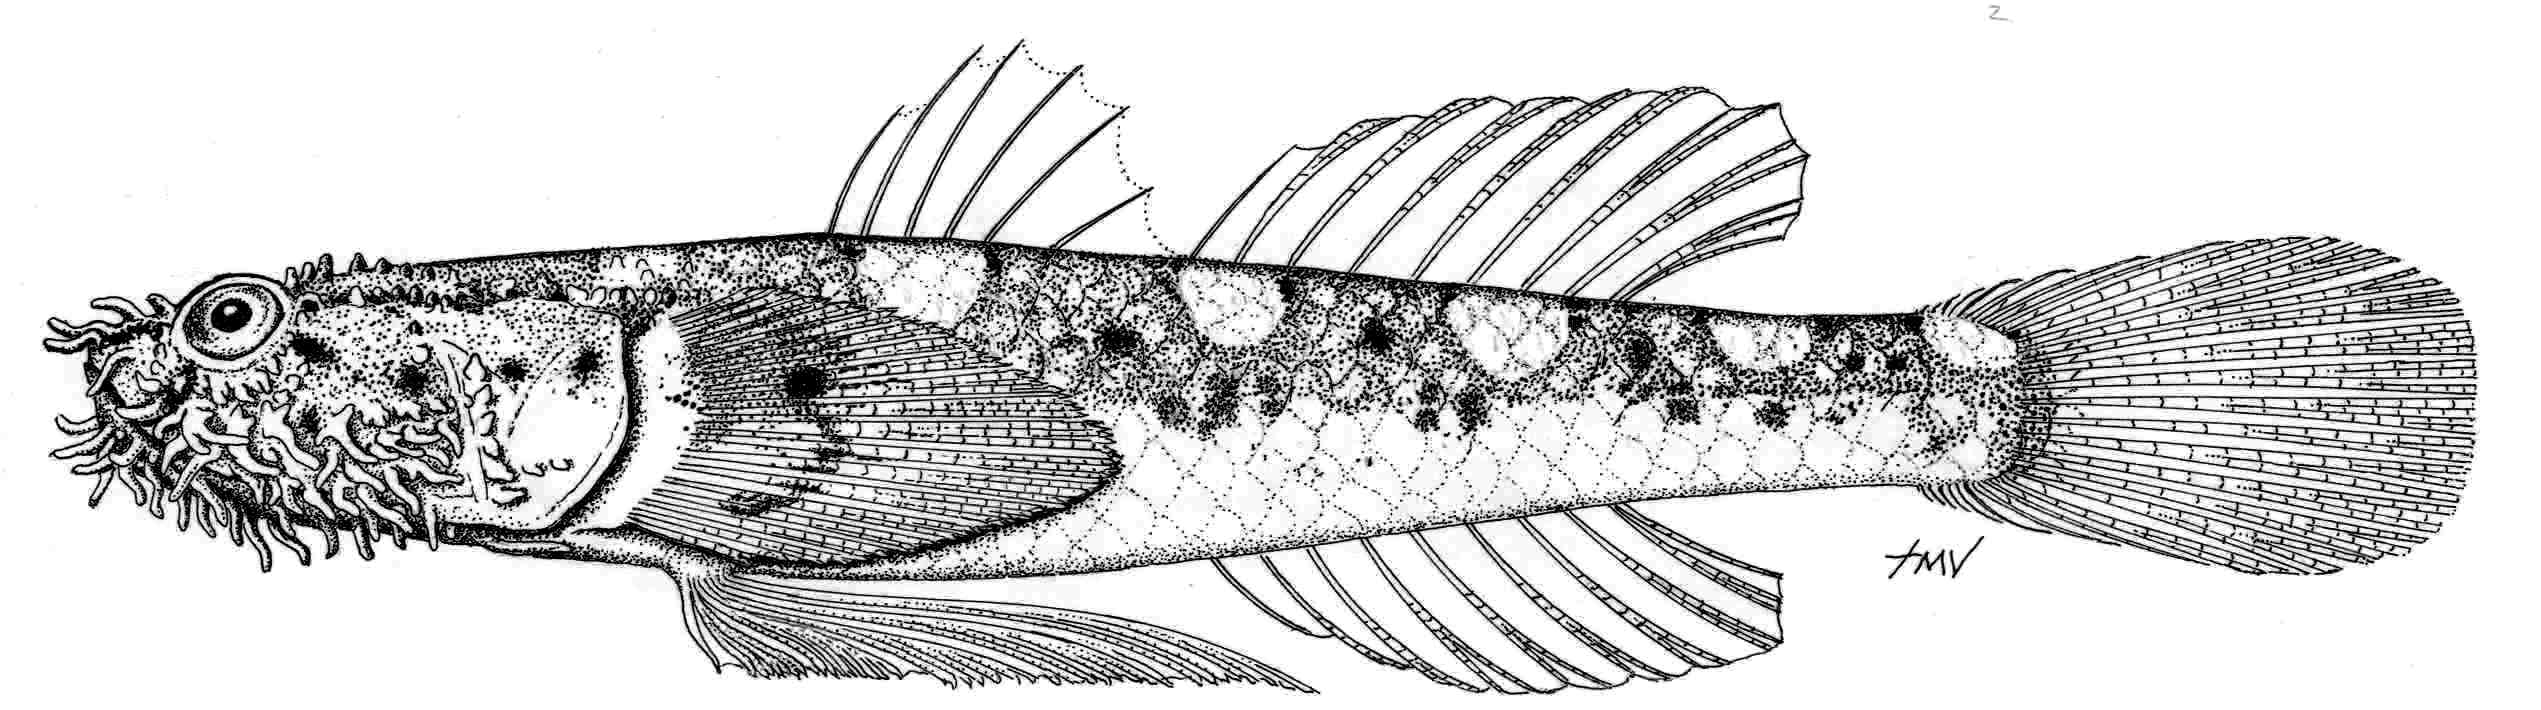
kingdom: Animalia
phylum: Chordata
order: Perciformes
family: Gobiidae
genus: Barbuligobius
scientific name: Barbuligobius boehlkei
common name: Bearded goby
